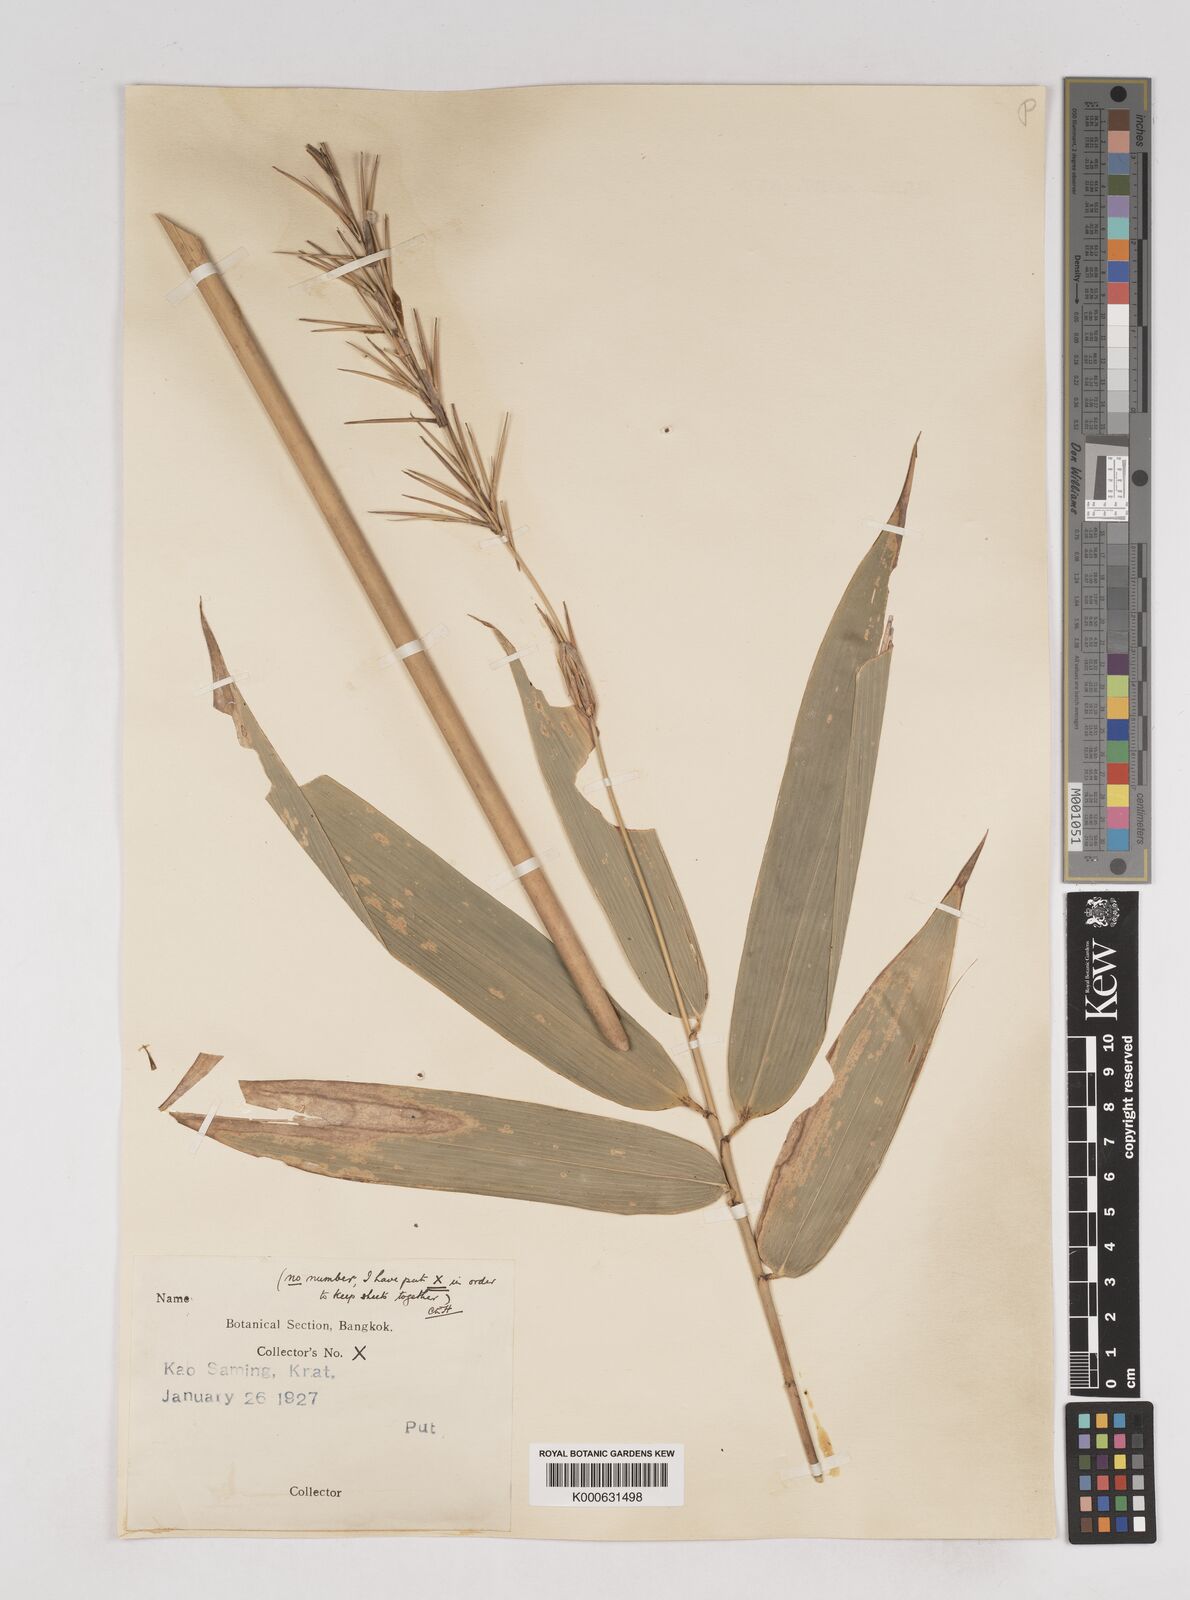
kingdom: Plantae
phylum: Tracheophyta
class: Liliopsida
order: Poales
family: Poaceae
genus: Schizostachyum
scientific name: Schizostachyum
